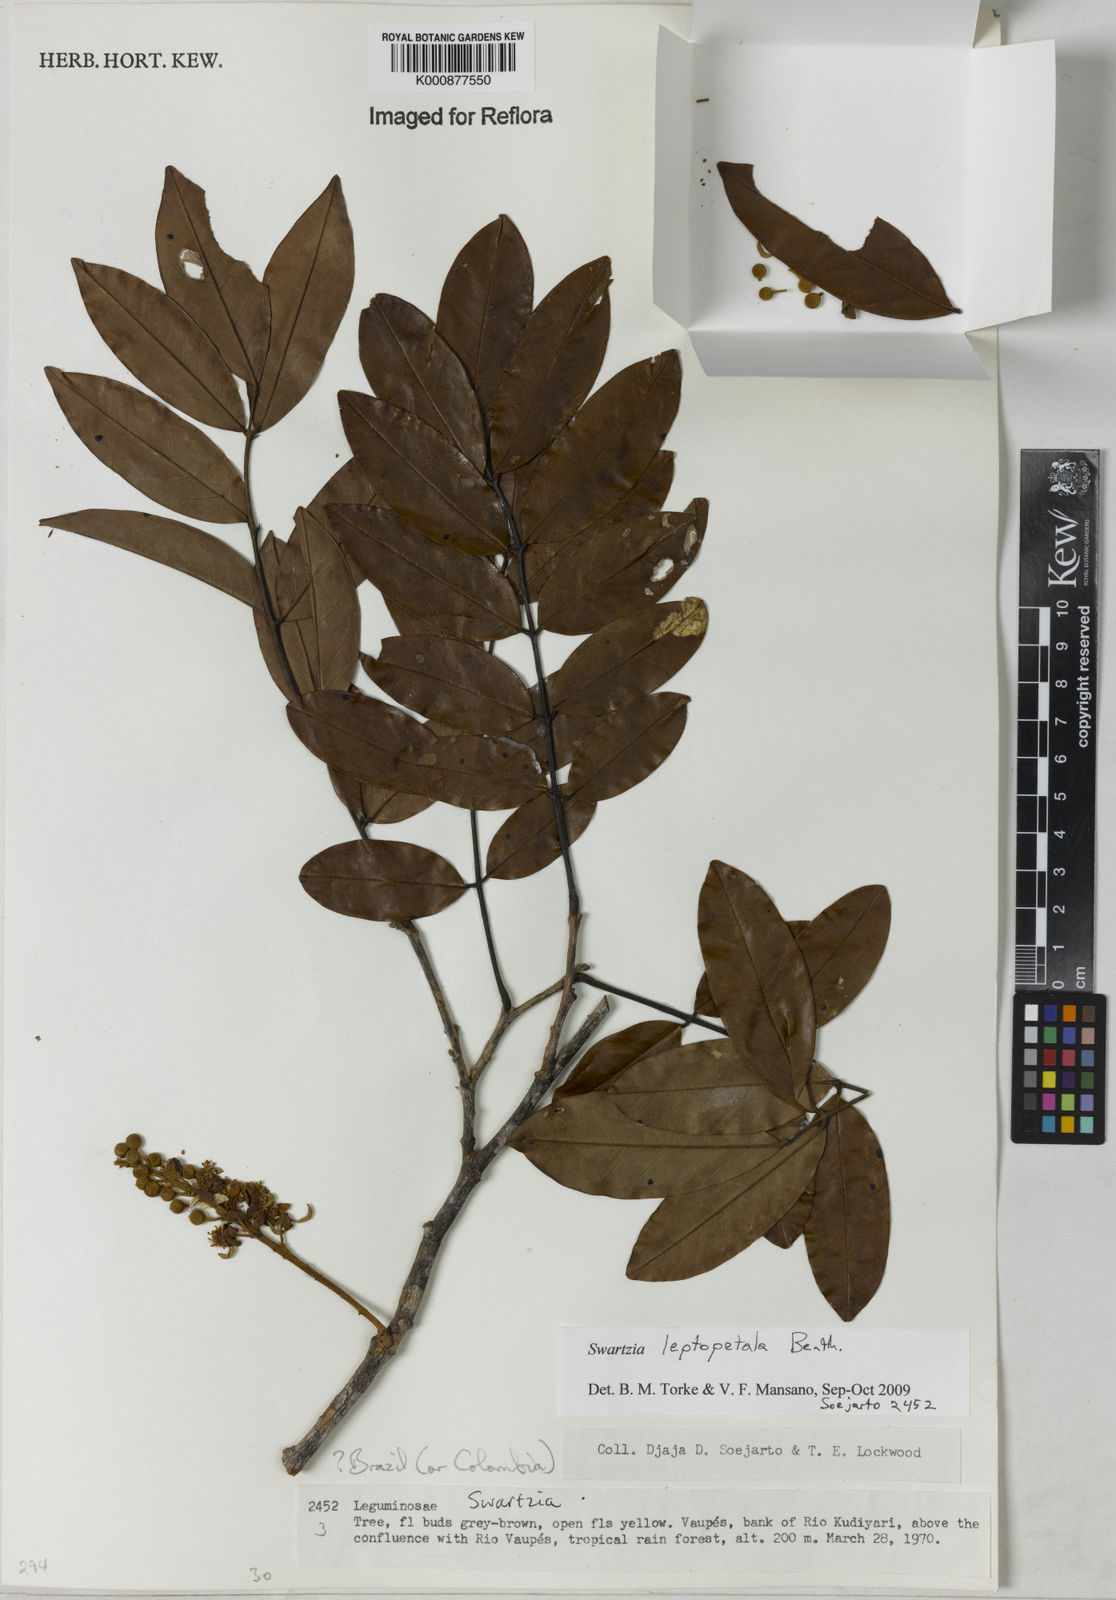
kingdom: Plantae
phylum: Tracheophyta
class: Magnoliopsida
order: Fabales
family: Fabaceae
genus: Swartzia
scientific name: Swartzia leptopetala
